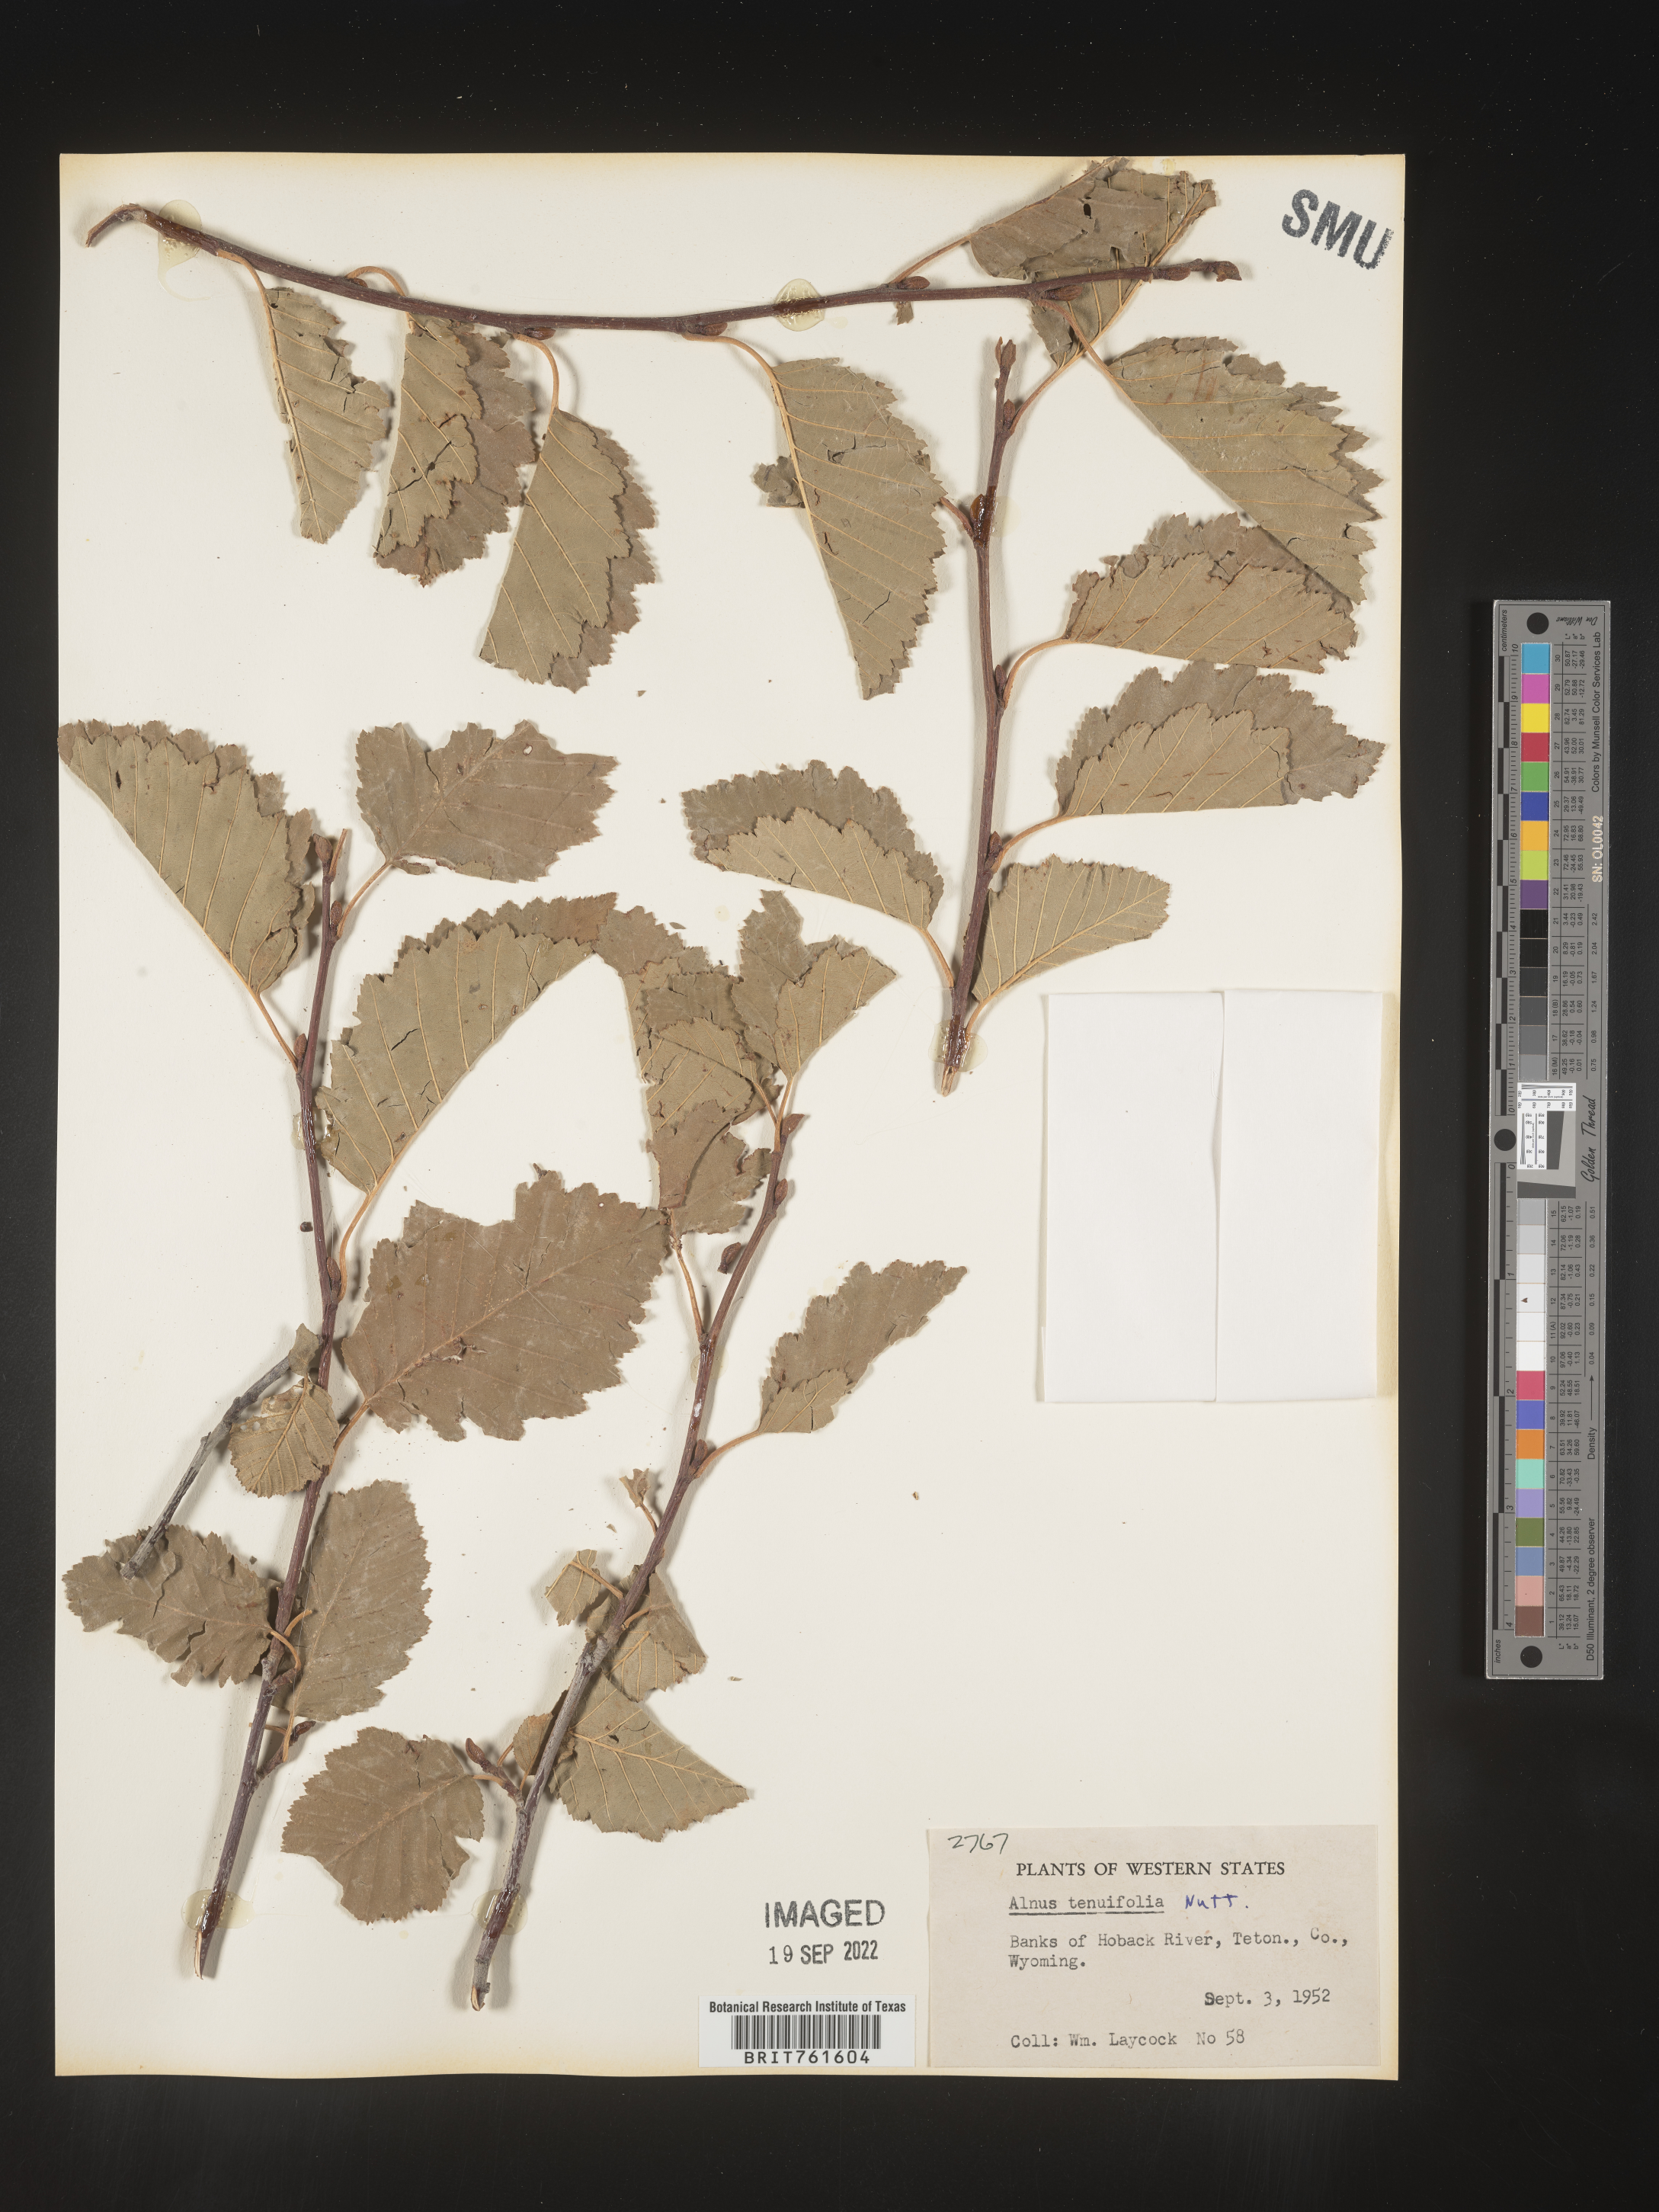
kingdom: Plantae
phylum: Tracheophyta
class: Magnoliopsida
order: Fagales
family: Betulaceae
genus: Alnus
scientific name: Alnus incana
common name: Grey alder
